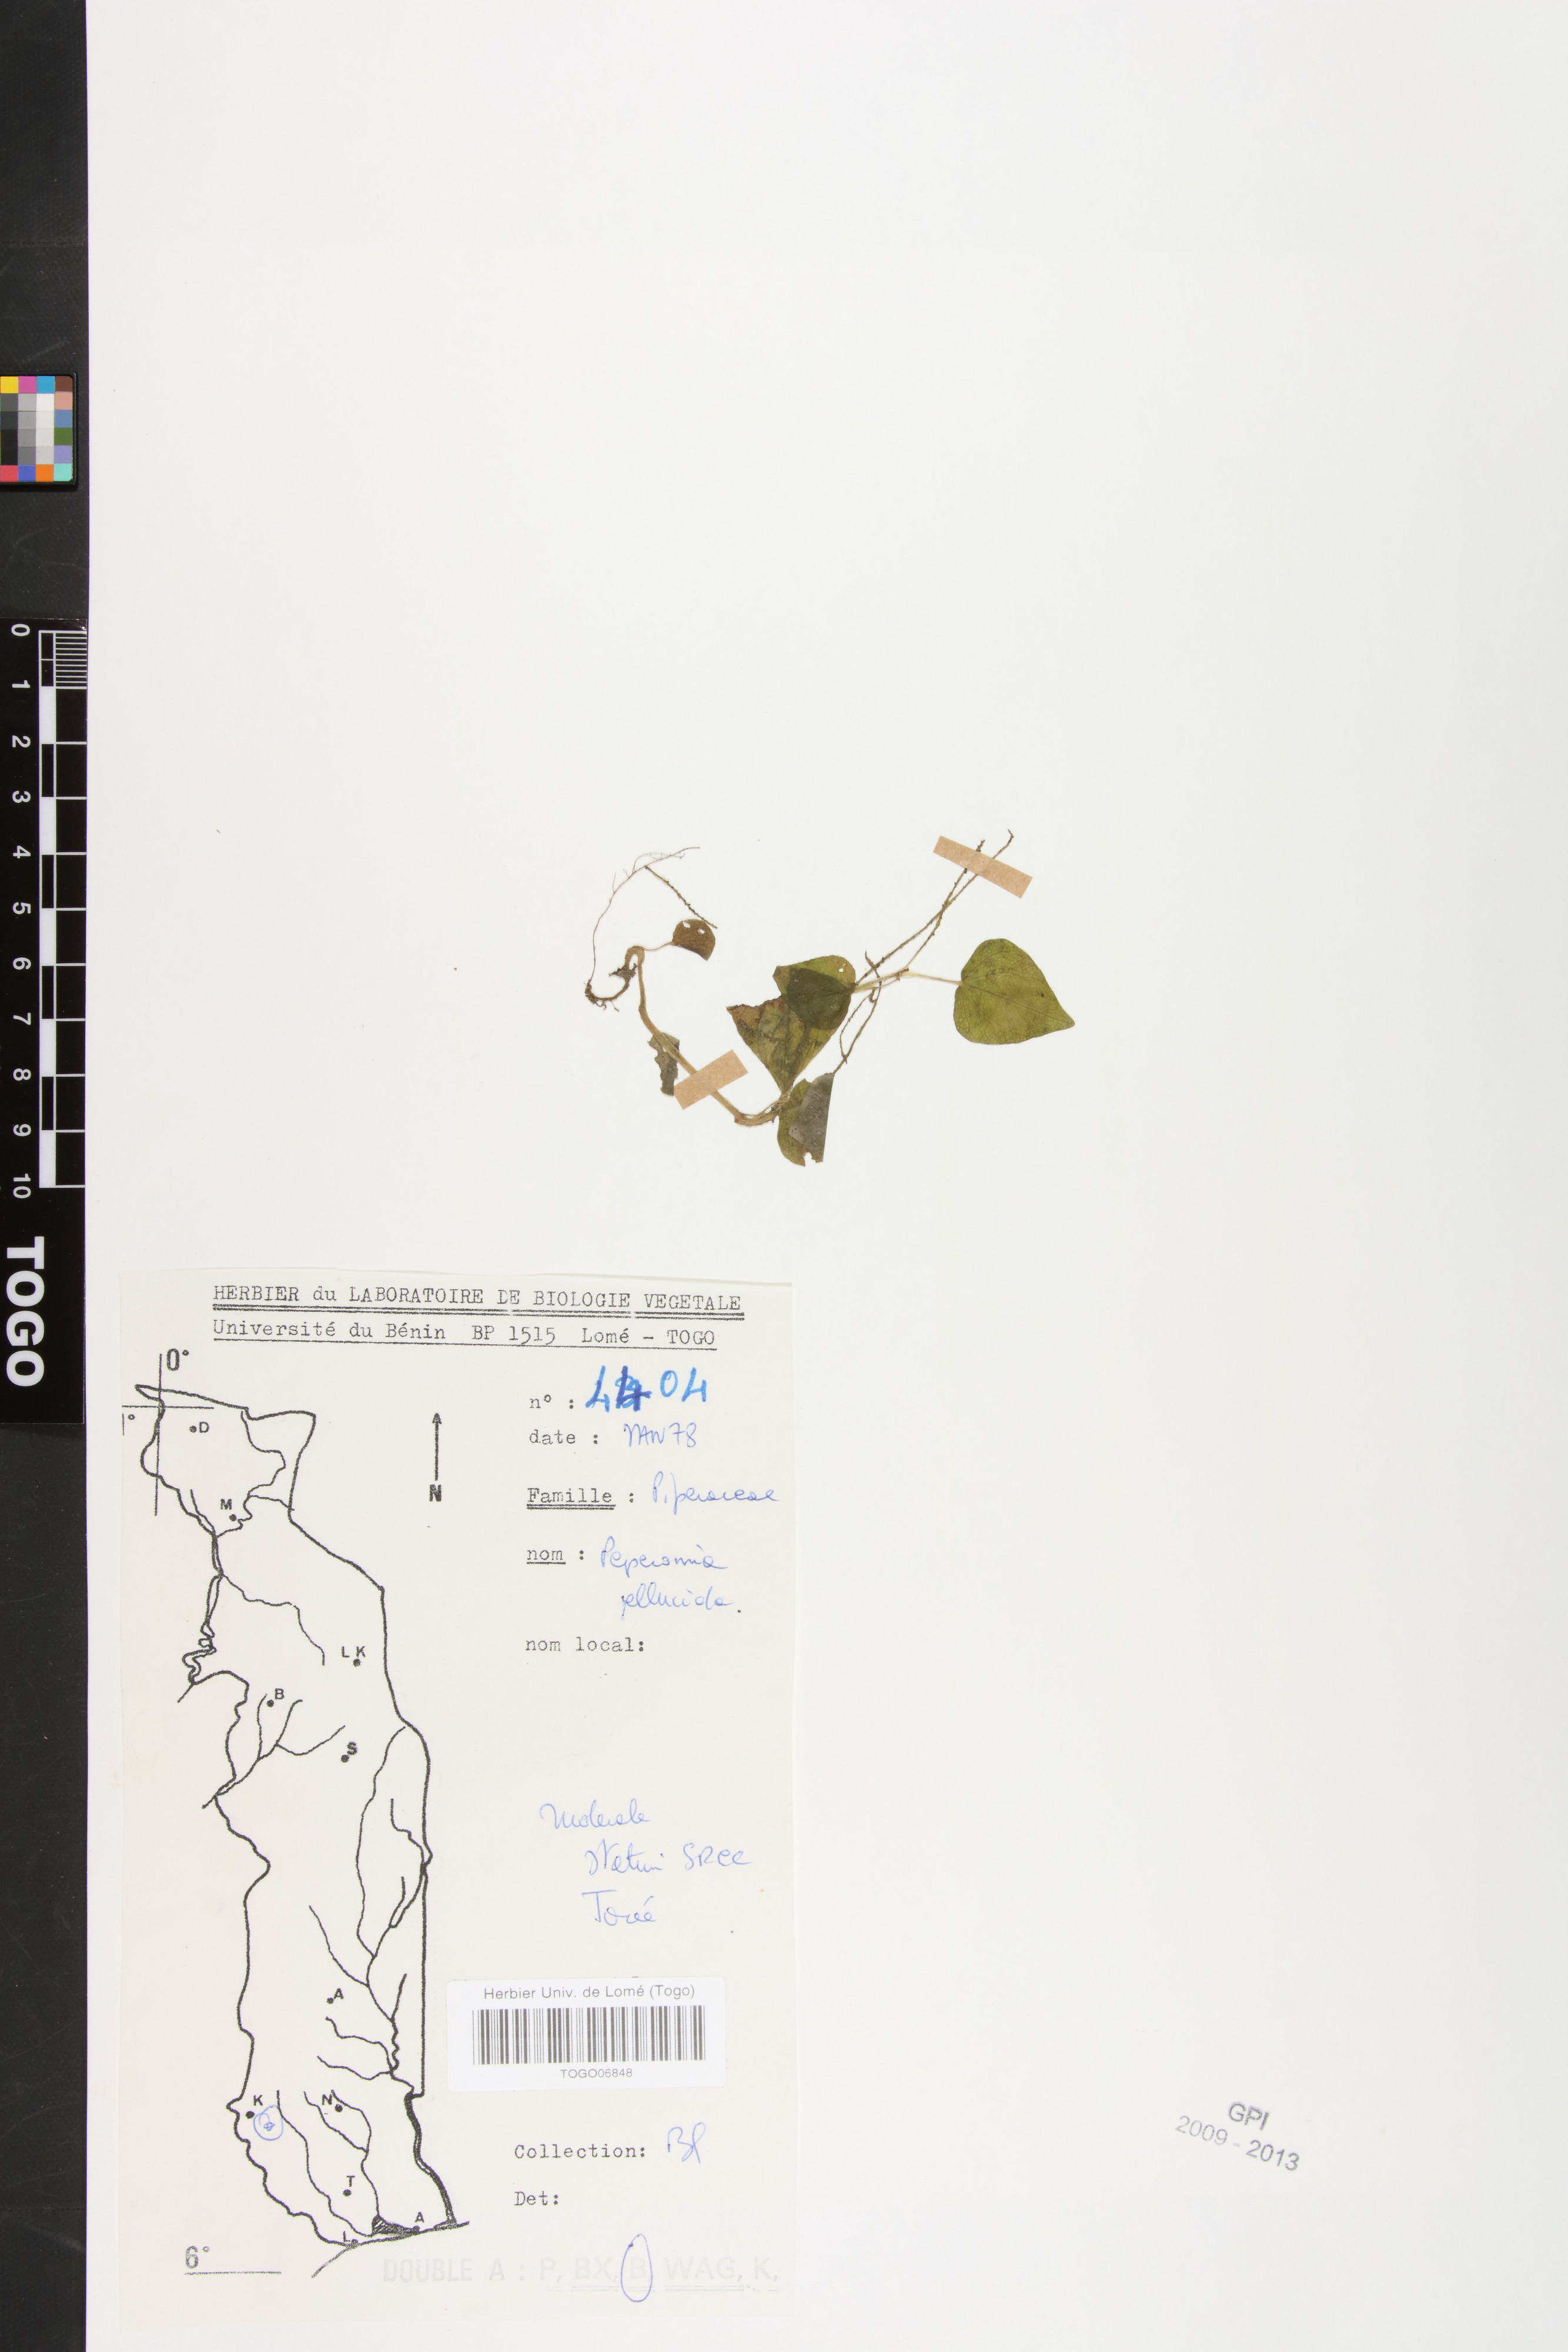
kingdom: Plantae
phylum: Tracheophyta
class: Magnoliopsida
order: Piperales
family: Piperaceae
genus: Peperomia
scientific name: Peperomia pellucida
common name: Man to man
